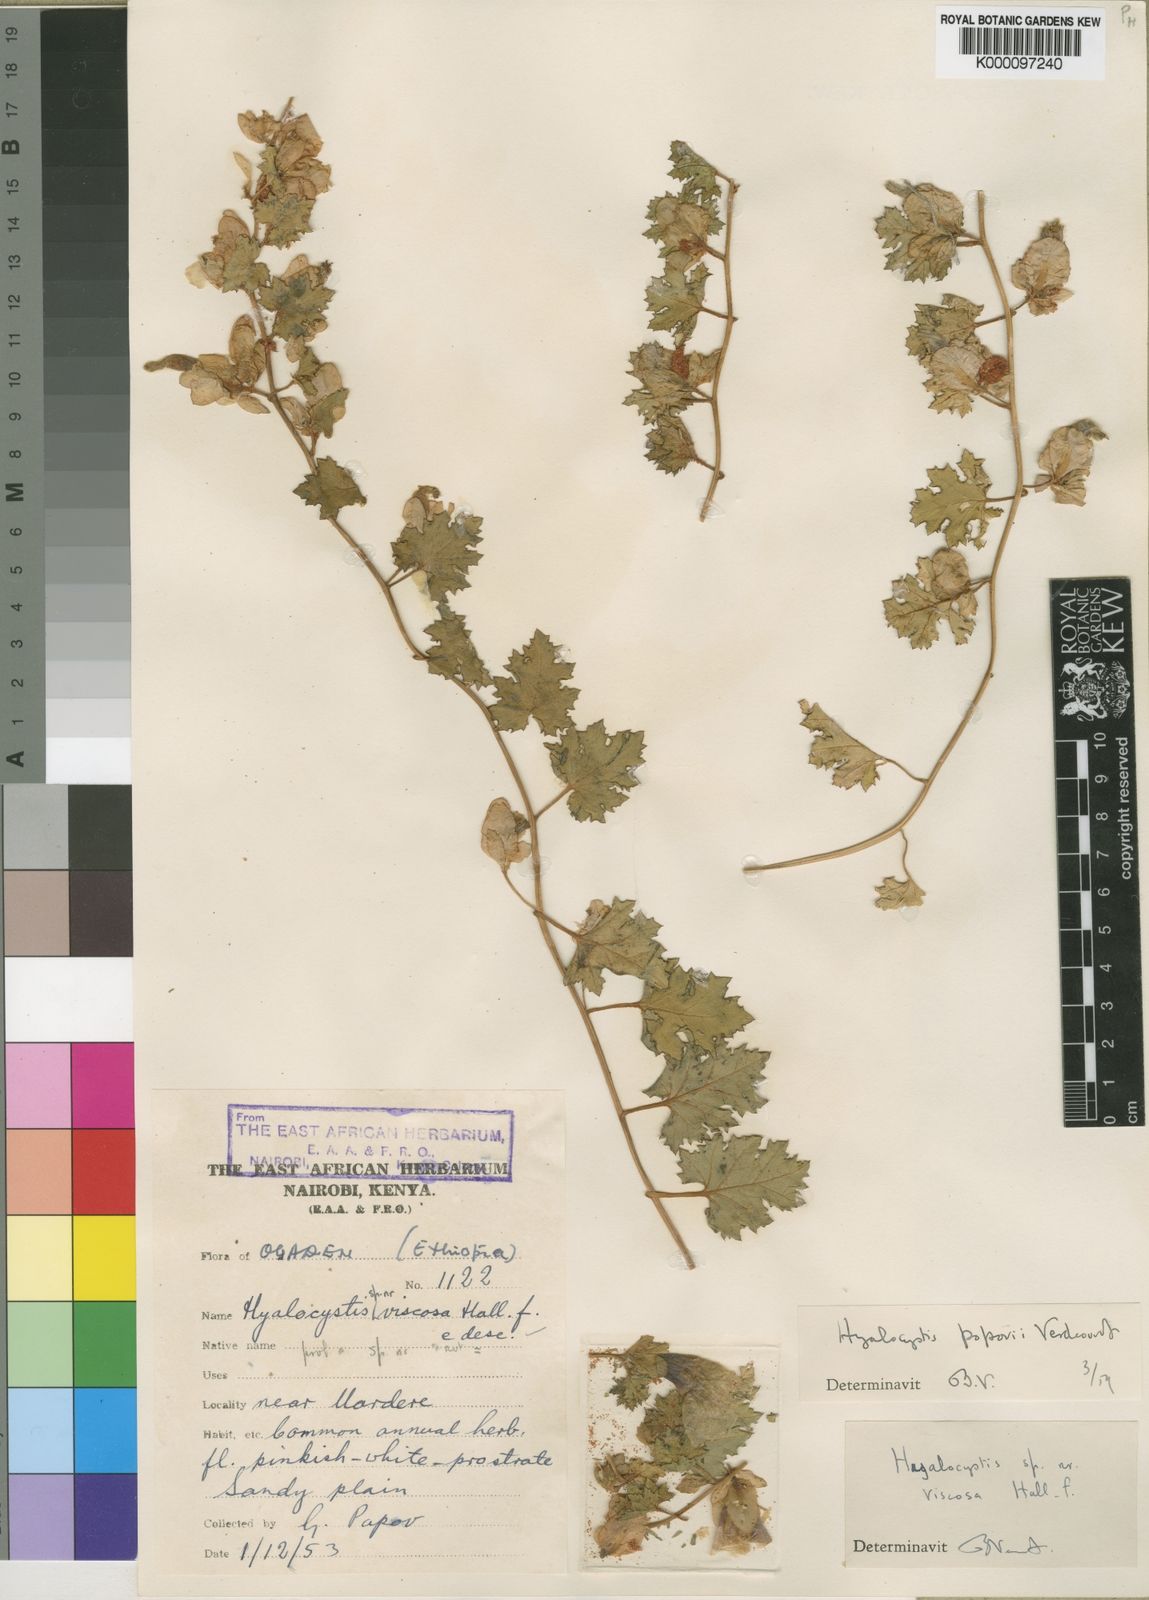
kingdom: Plantae
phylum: Tracheophyta
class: Magnoliopsida
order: Solanales
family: Convolvulaceae
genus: Hyalocystis
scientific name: Hyalocystis popovii
